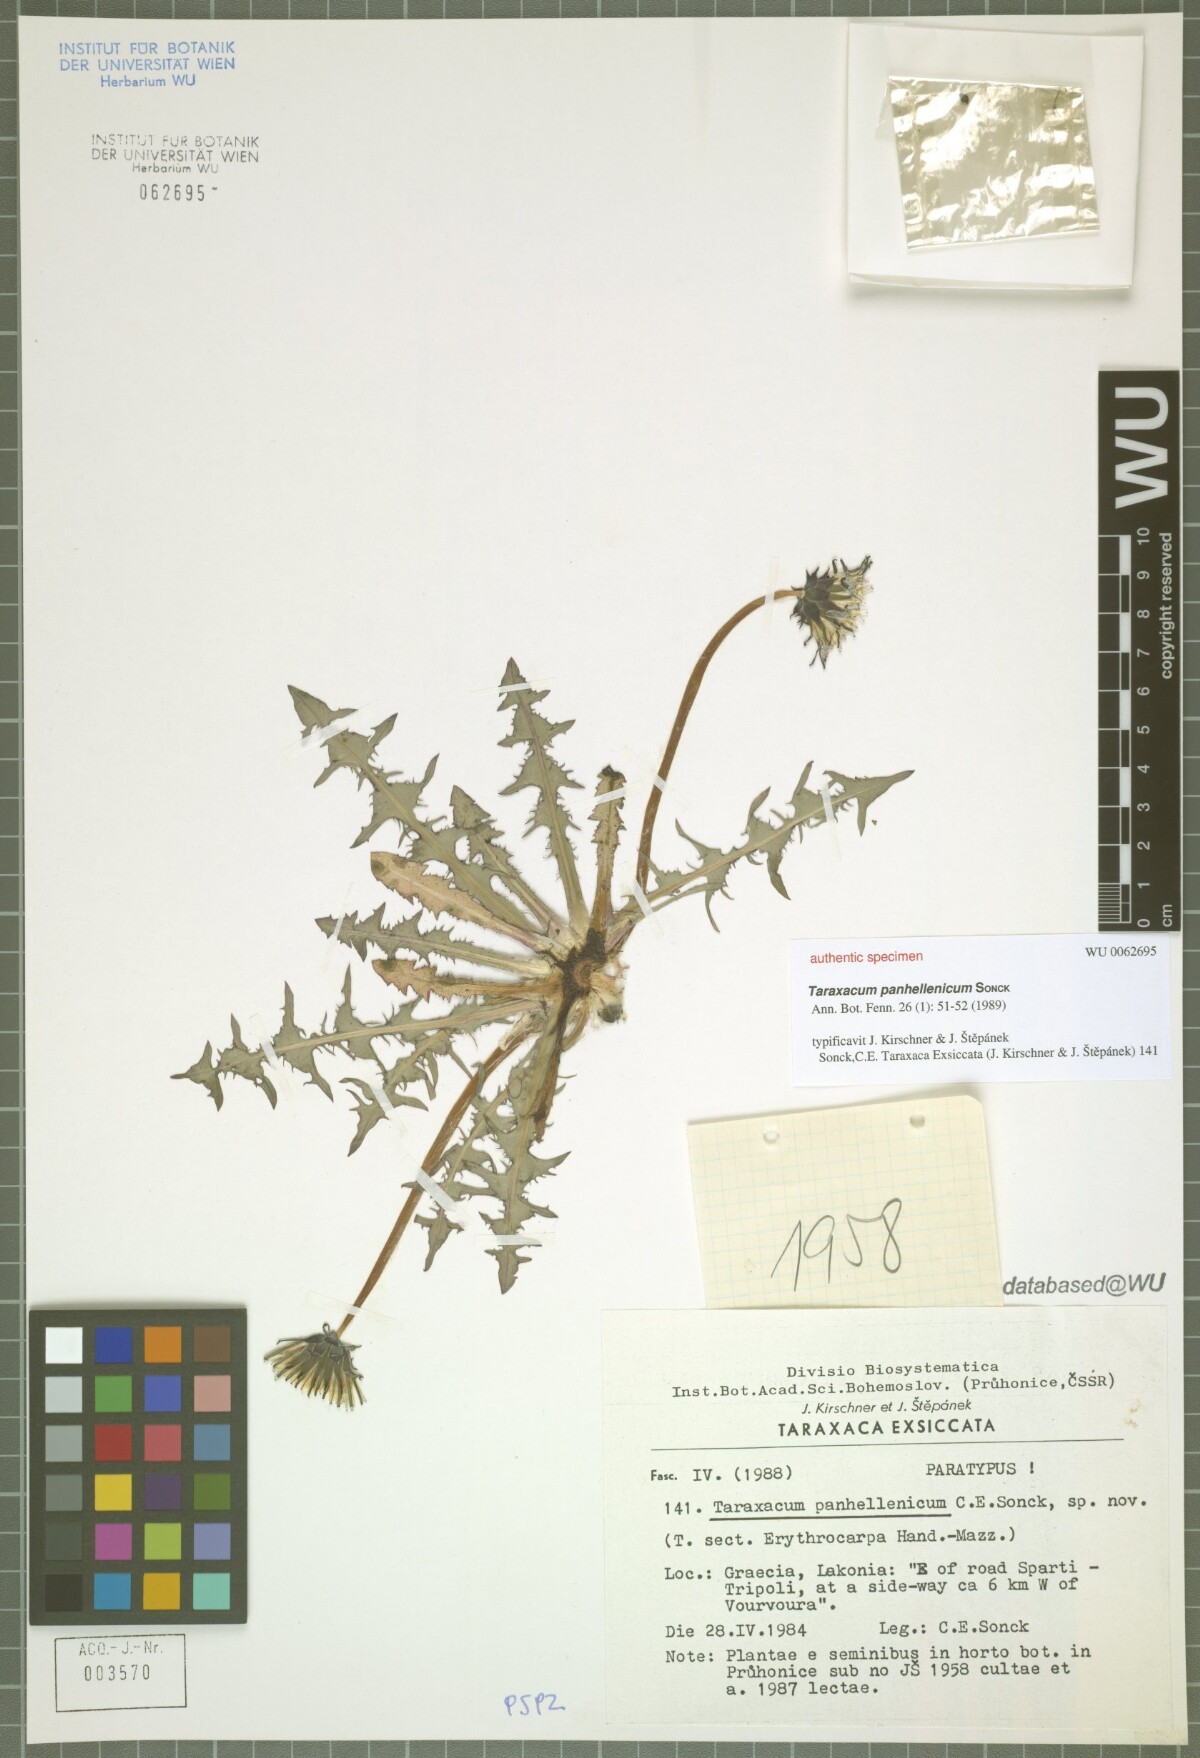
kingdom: Plantae
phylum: Tracheophyta
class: Magnoliopsida
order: Asterales
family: Asteraceae
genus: Taraxacum
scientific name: Taraxacum panhellenicum
